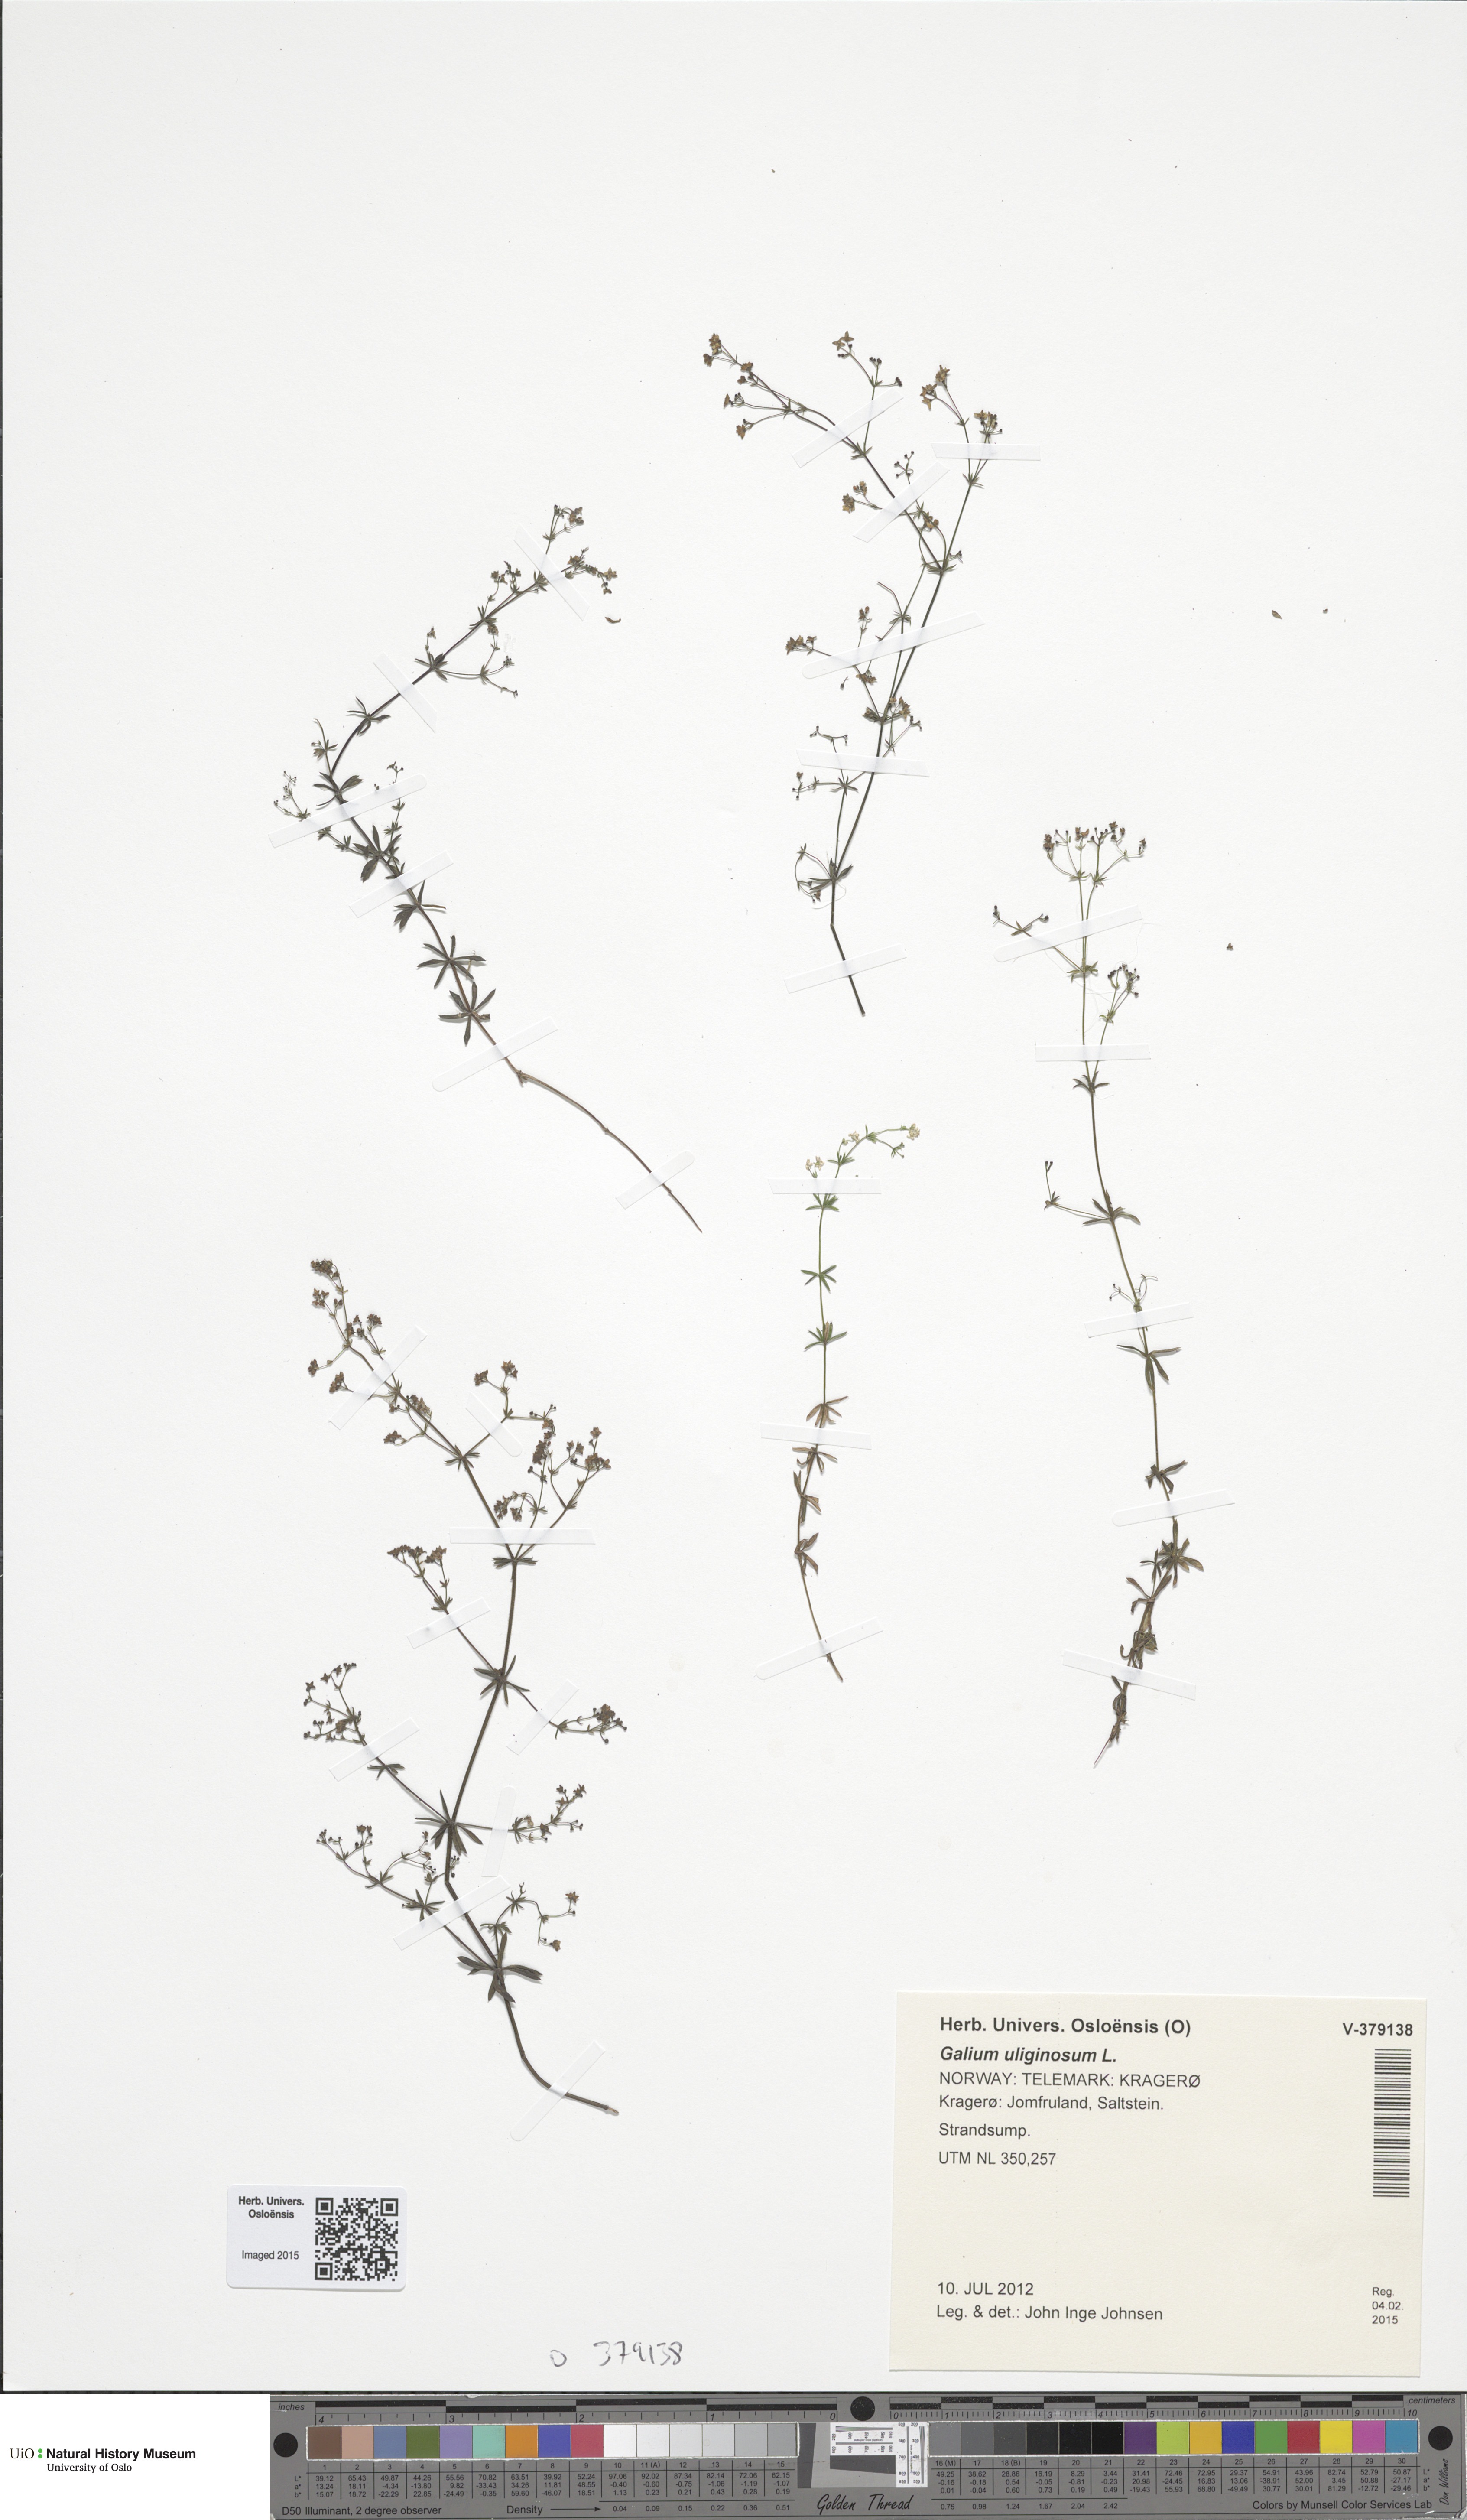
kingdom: Plantae
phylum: Tracheophyta
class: Magnoliopsida
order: Gentianales
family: Rubiaceae
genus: Galium
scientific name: Galium uliginosum
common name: Fen bedstraw
